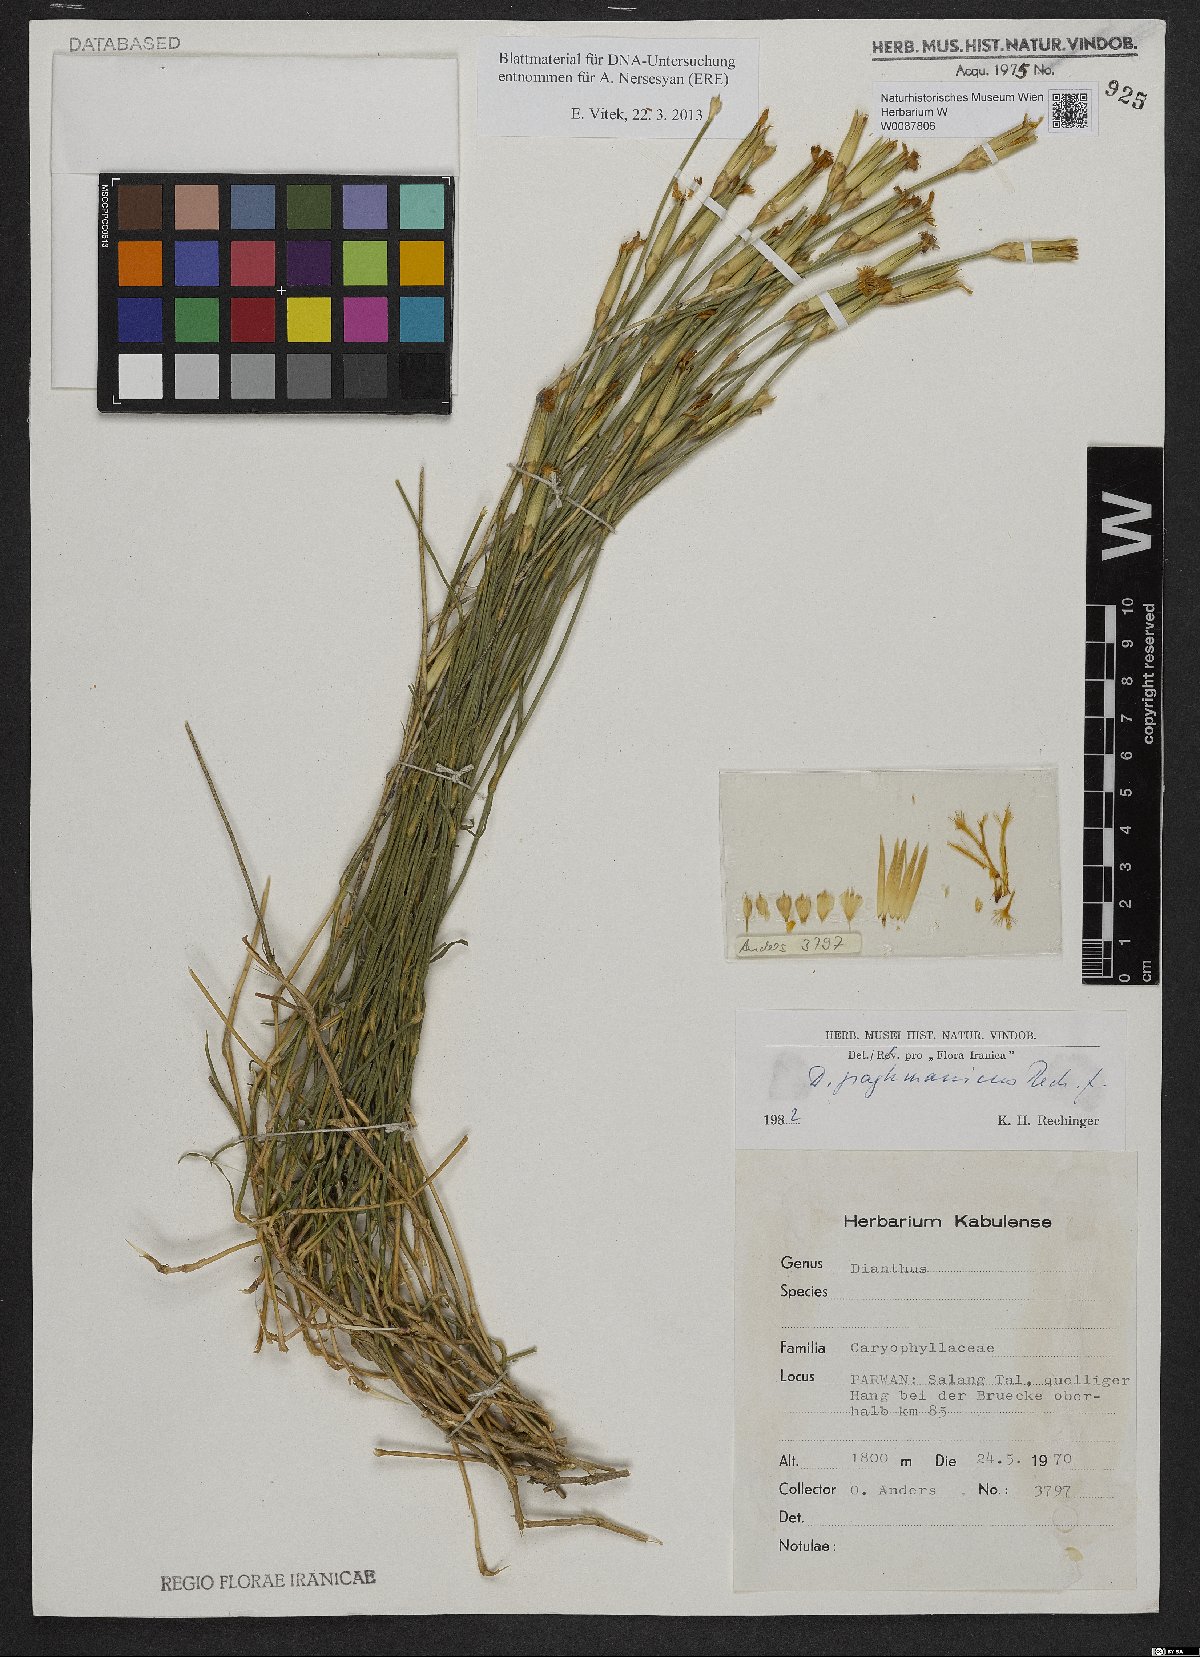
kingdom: Plantae
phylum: Tracheophyta
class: Magnoliopsida
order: Caryophyllales
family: Caryophyllaceae
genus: Dianthus
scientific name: Dianthus paghmanicus
